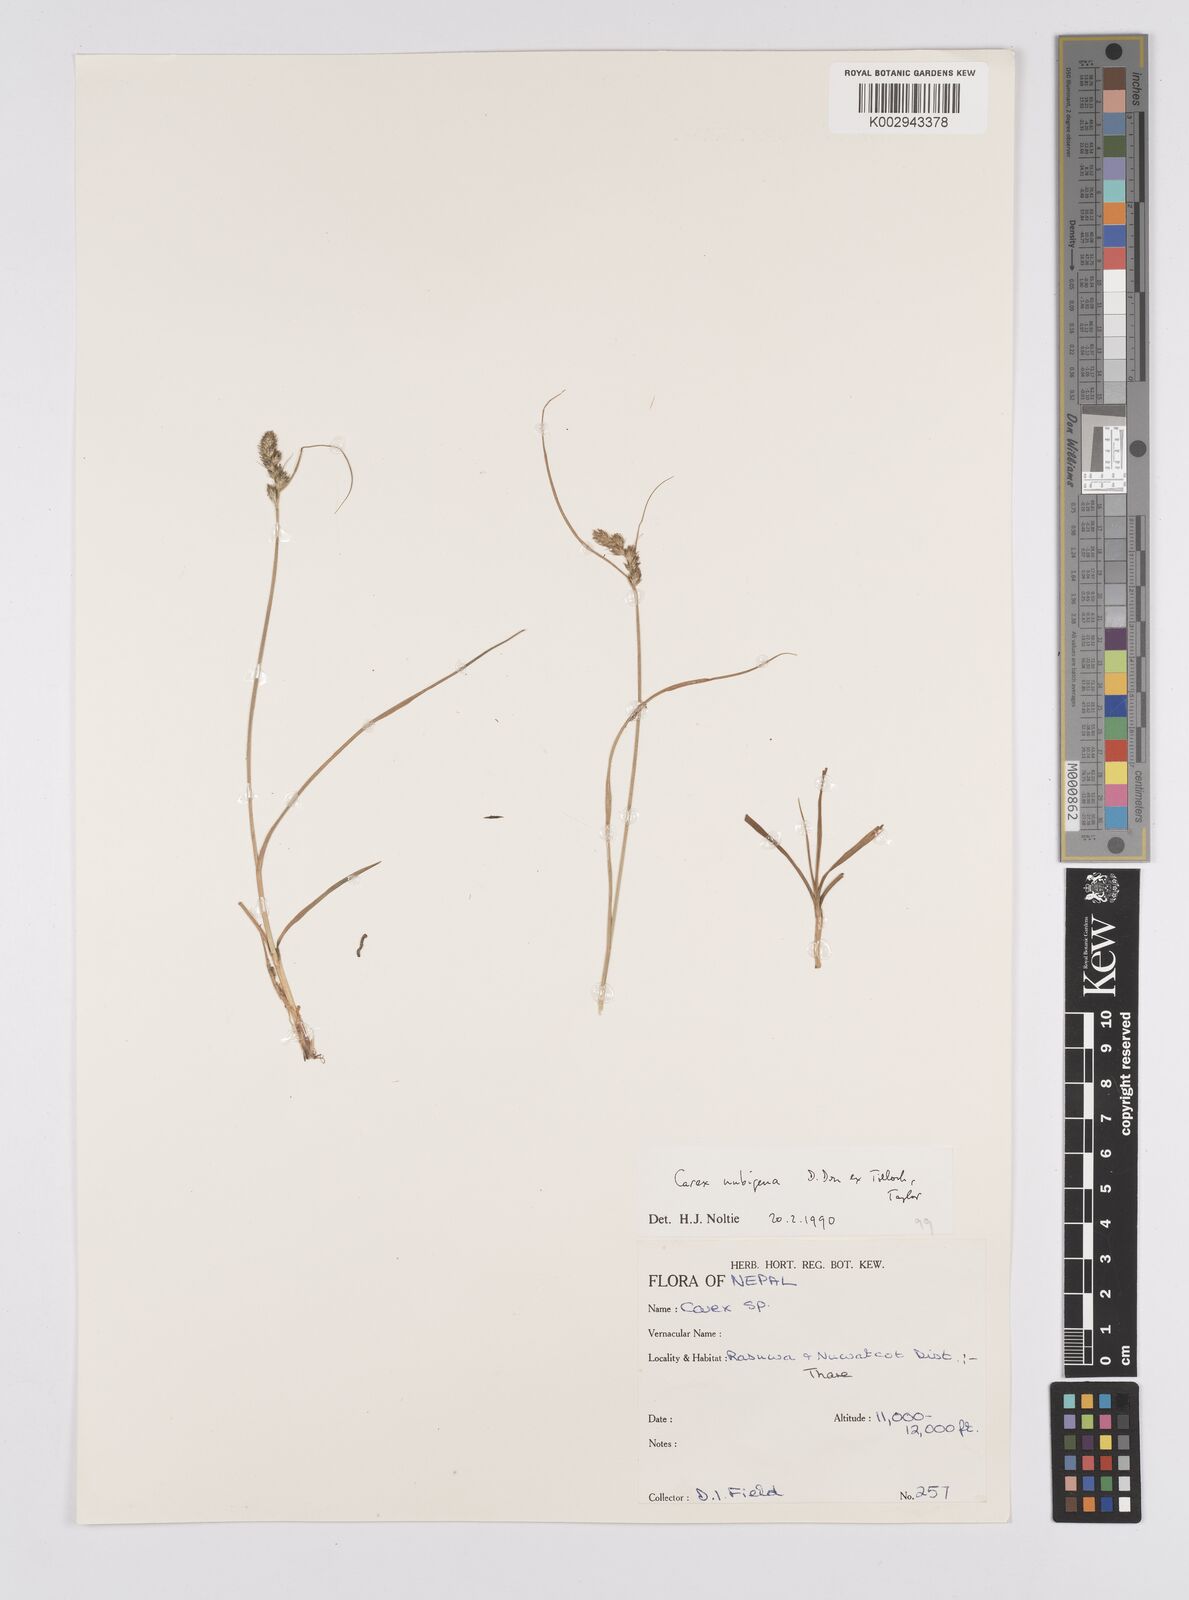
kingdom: Plantae
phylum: Tracheophyta
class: Liliopsida
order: Poales
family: Cyperaceae
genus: Carex
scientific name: Carex nubigena
